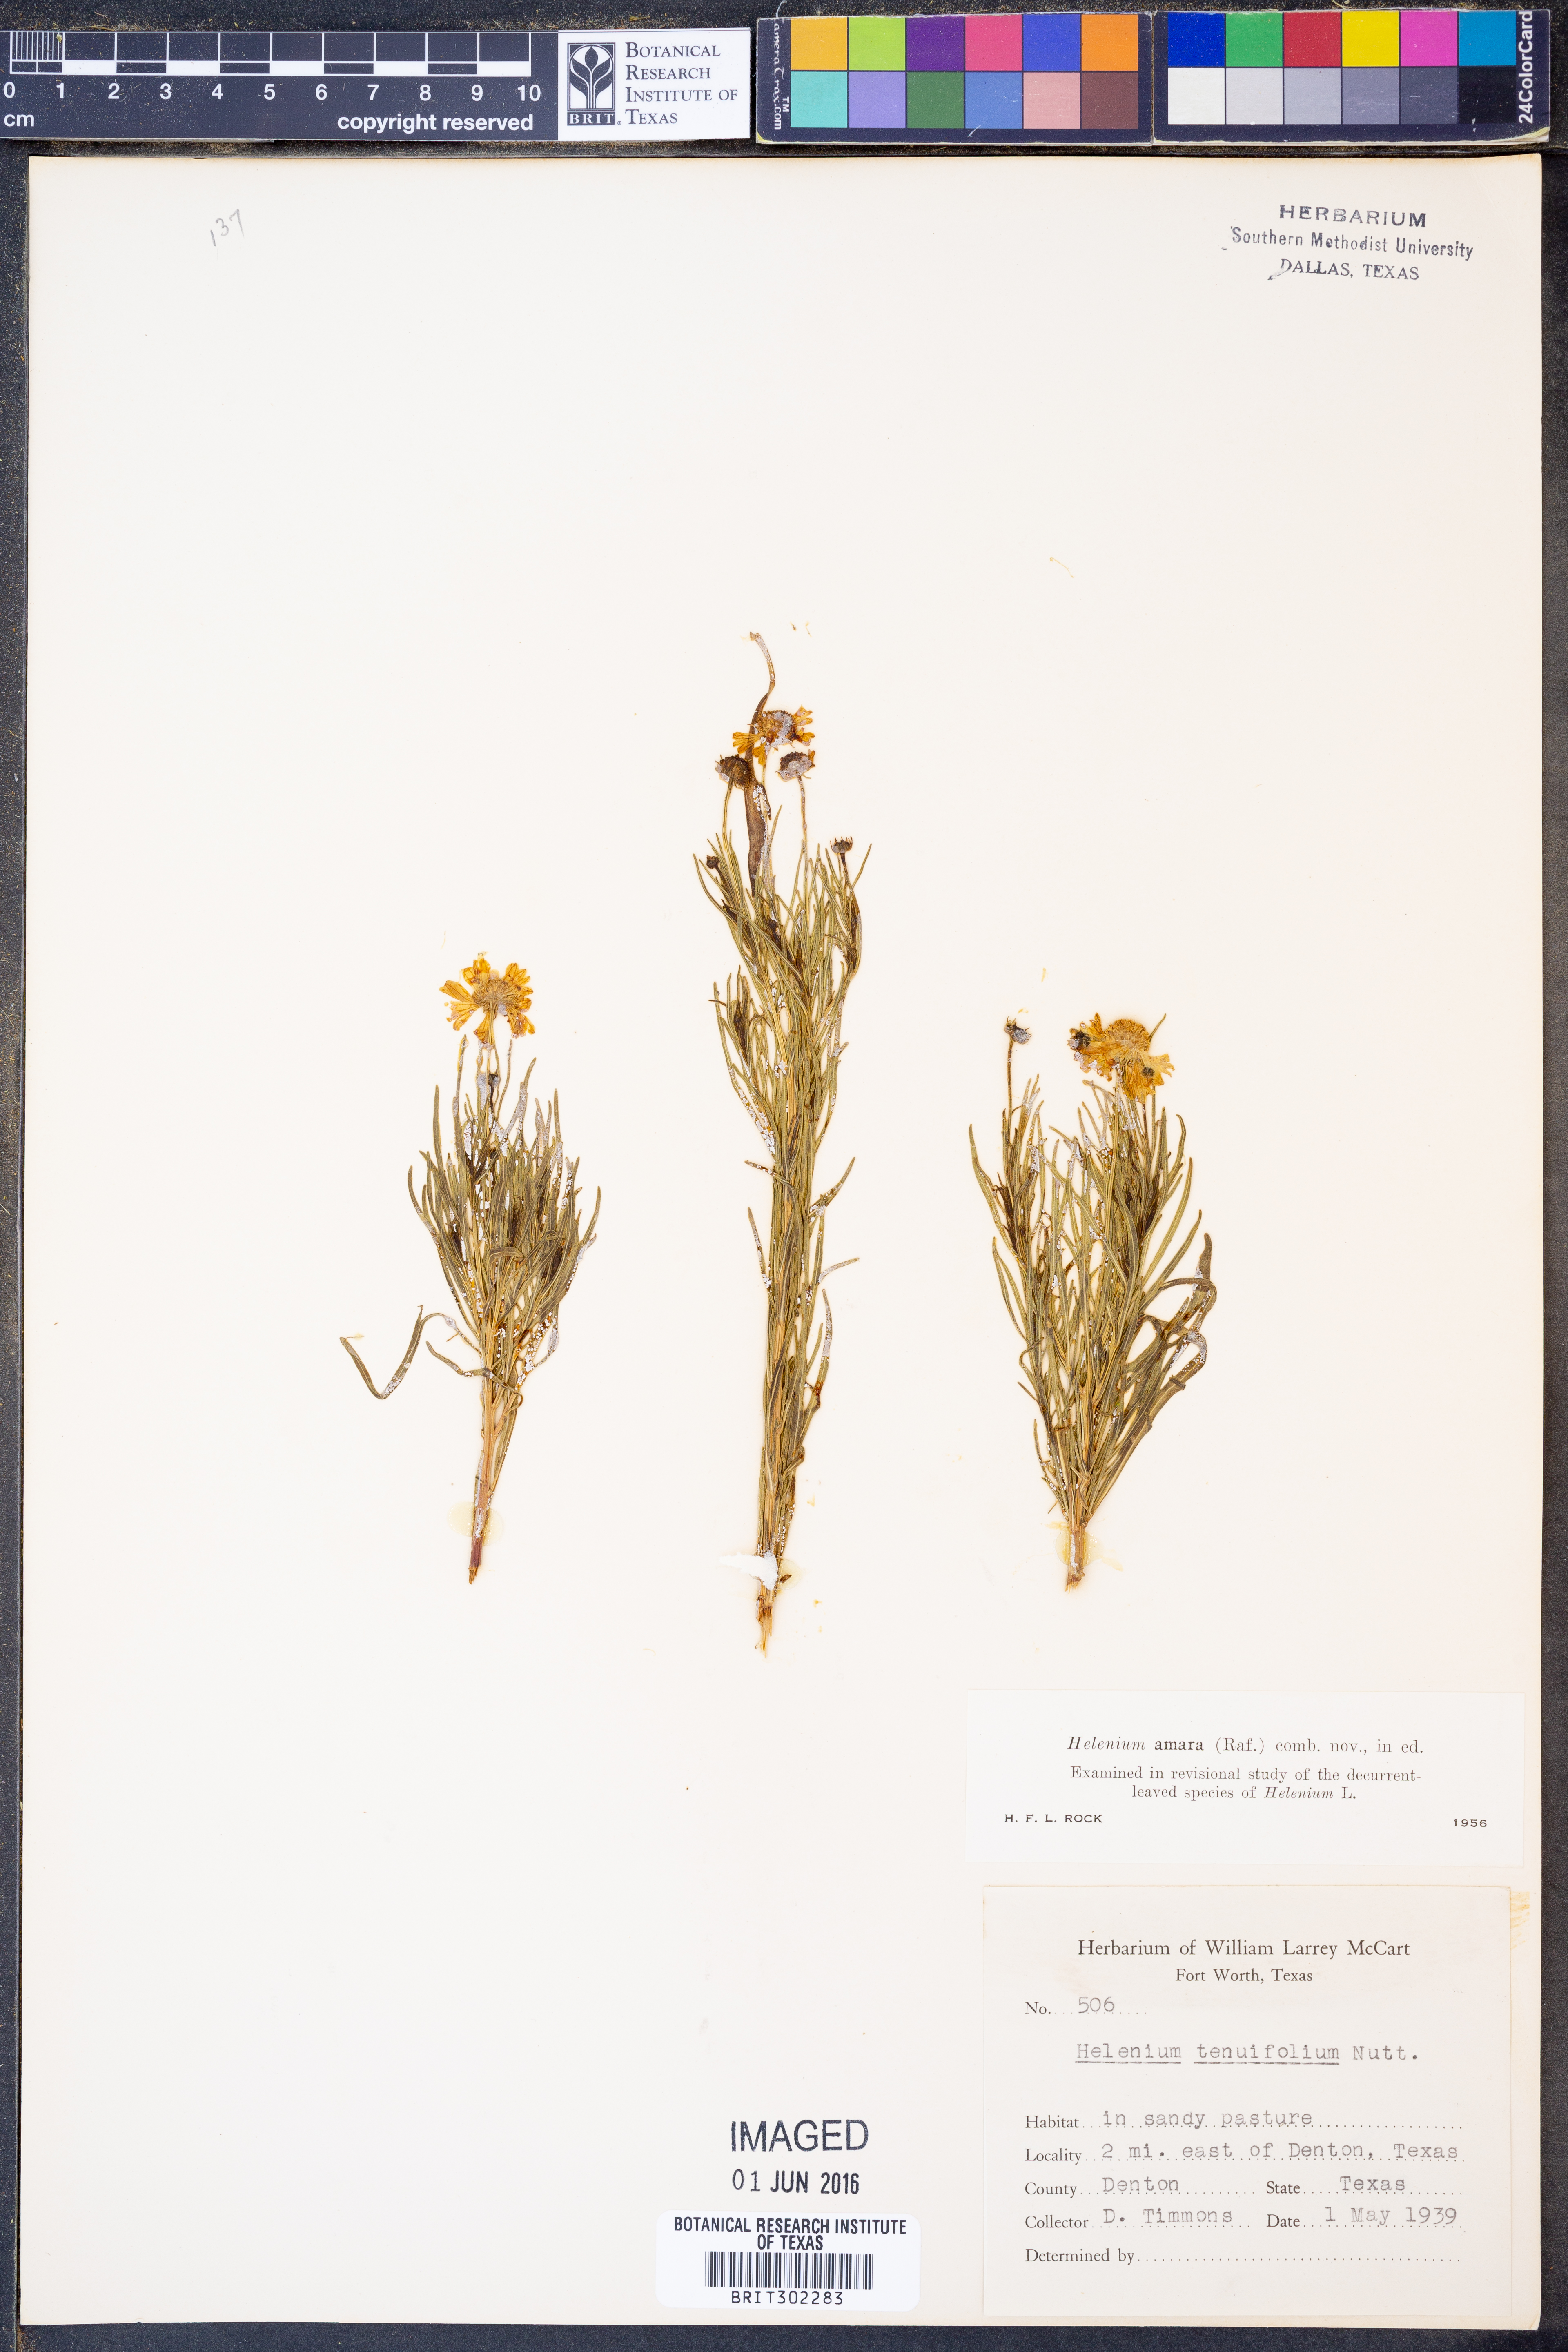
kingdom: Plantae
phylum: Tracheophyta
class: Magnoliopsida
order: Asterales
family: Asteraceae
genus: Helenium
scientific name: Helenium amarum
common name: Bitter sneezeweed
